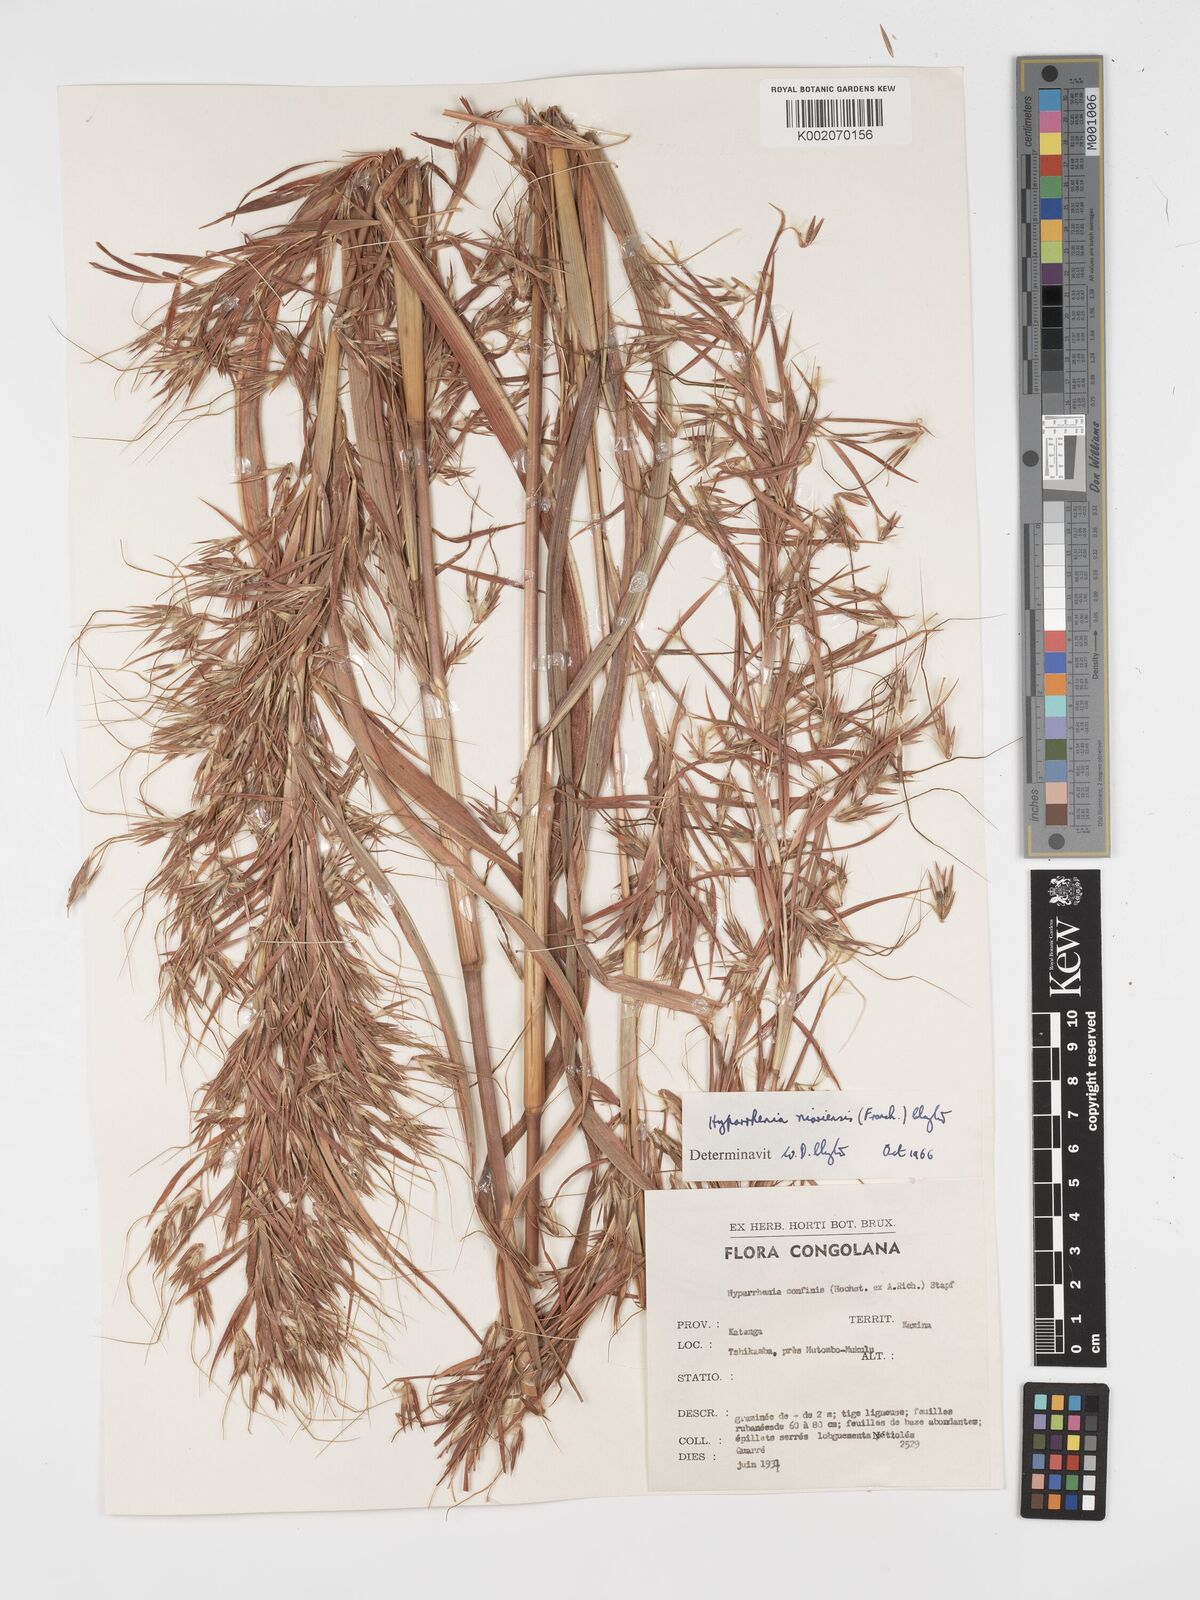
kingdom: Plantae
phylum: Tracheophyta
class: Liliopsida
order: Poales
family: Poaceae
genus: Hyparrhenia
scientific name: Hyparrhenia niariensis
